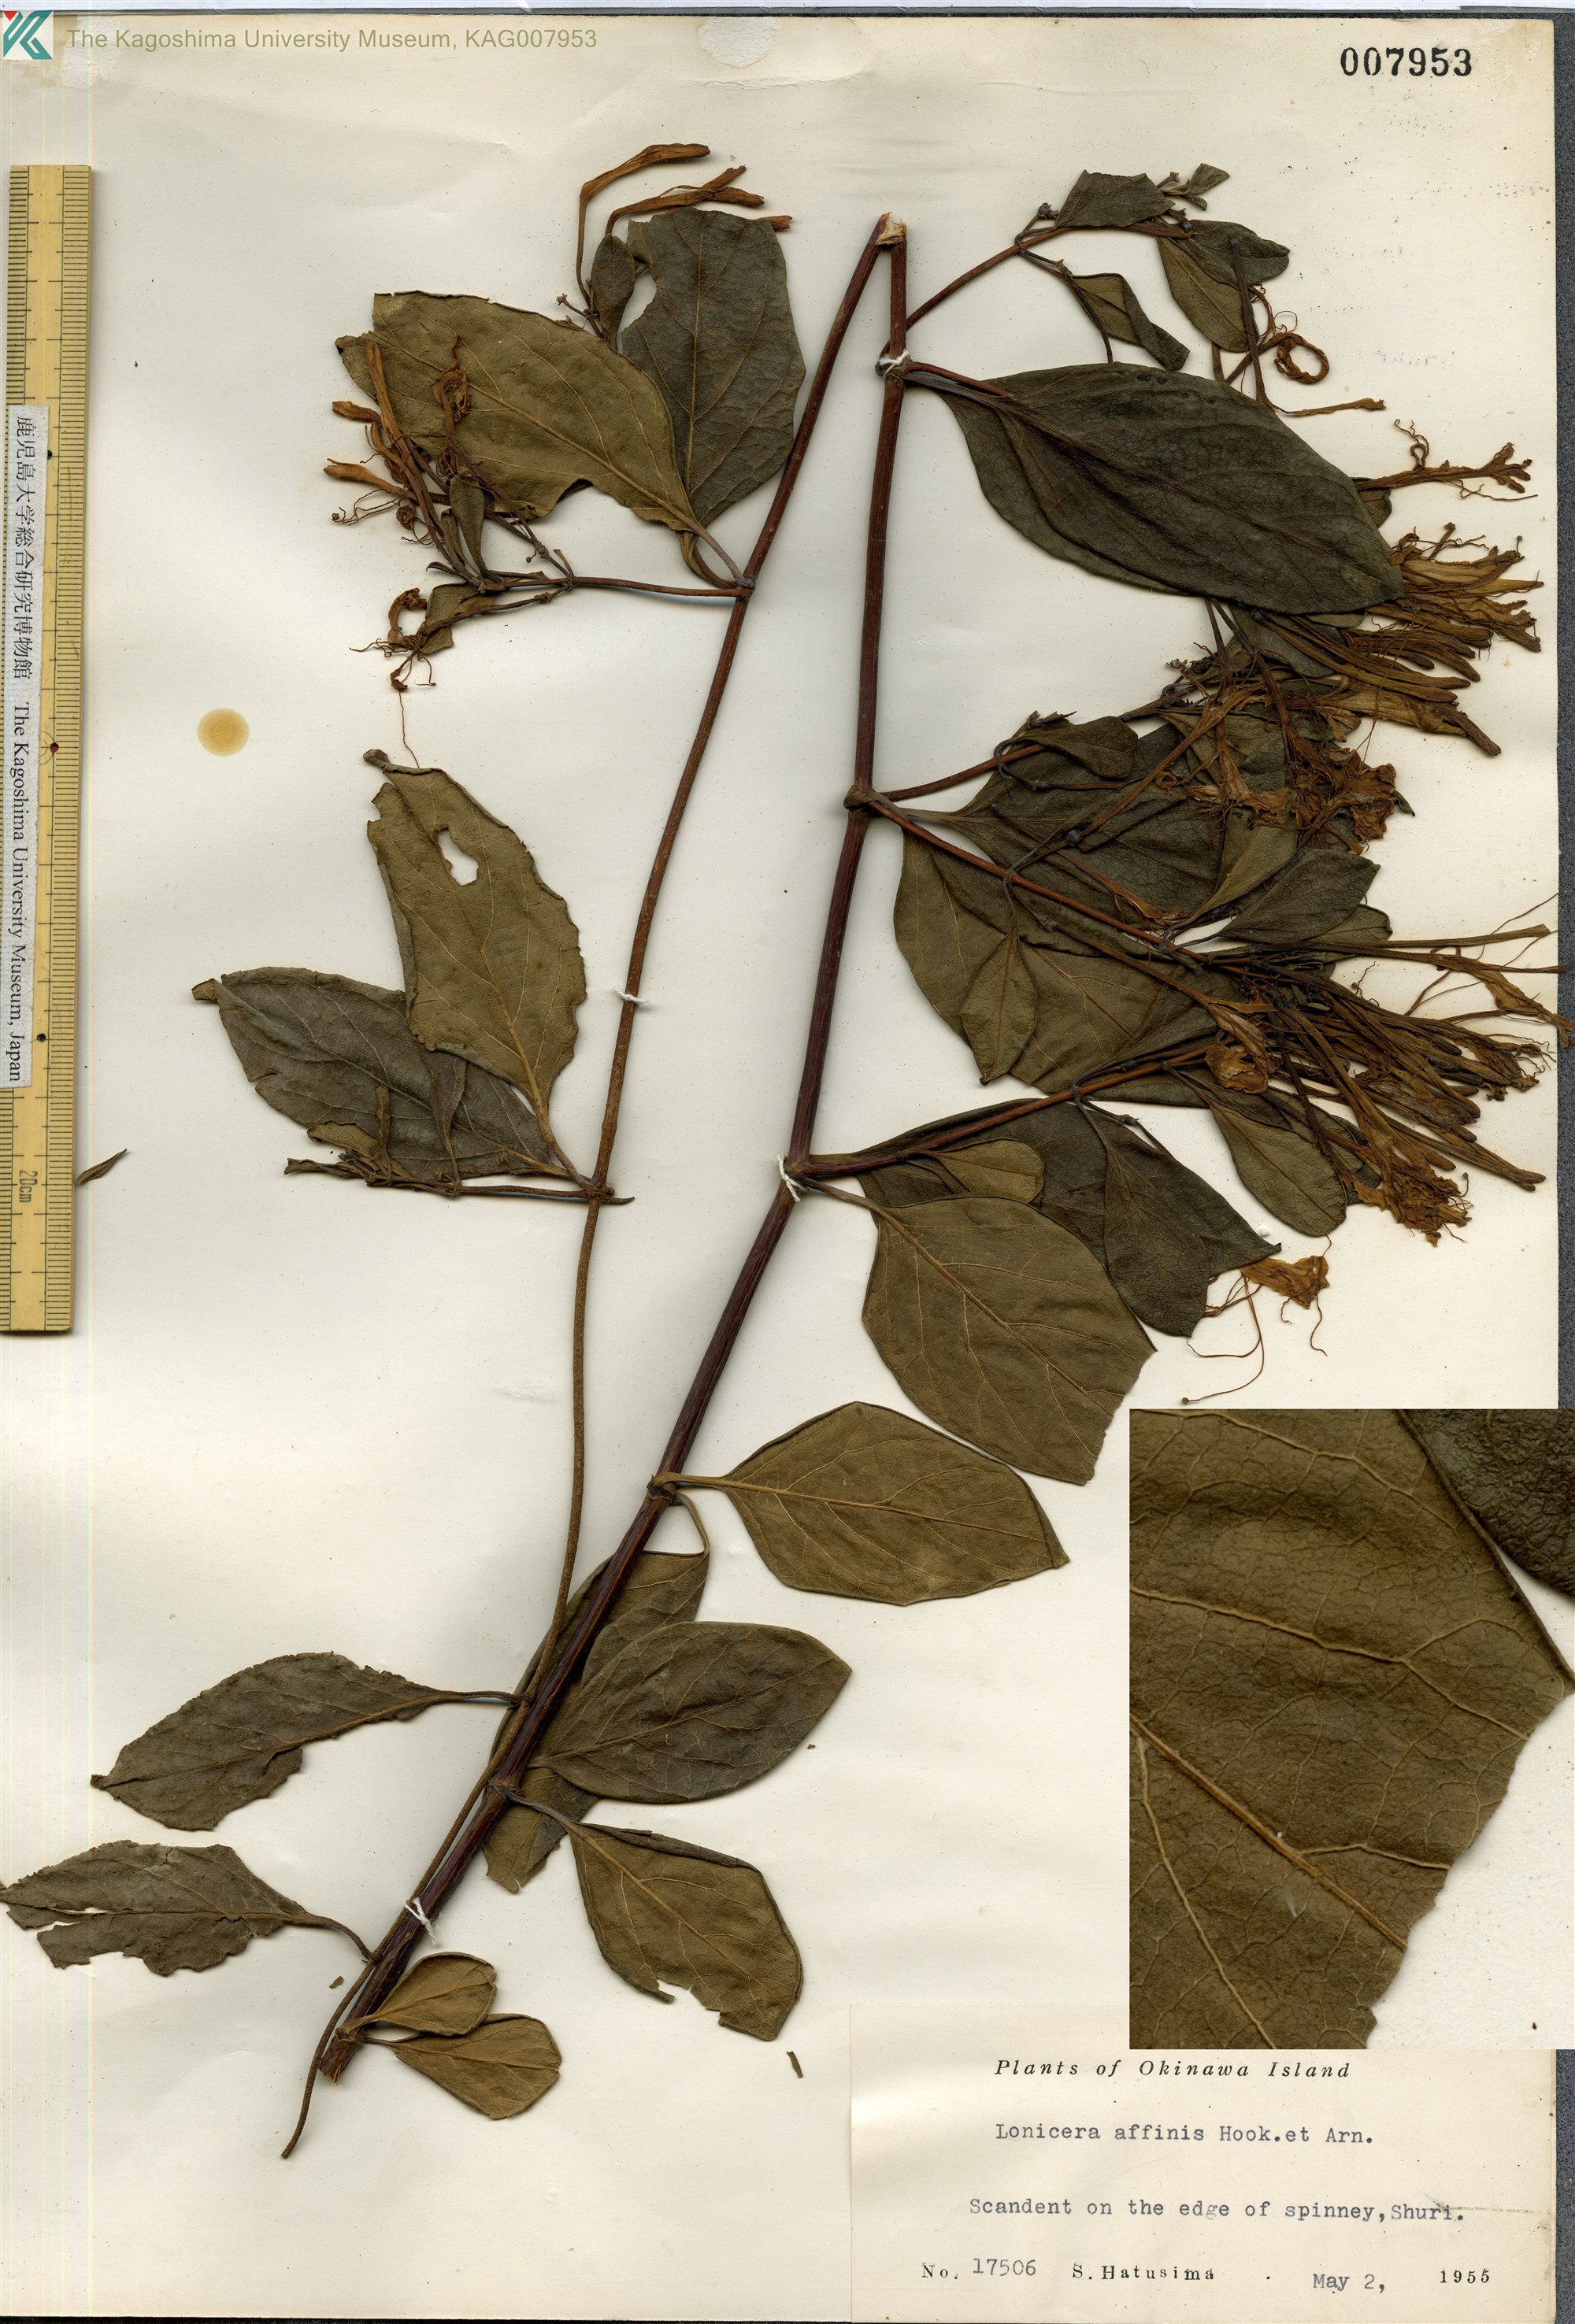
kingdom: Plantae
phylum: Tracheophyta
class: Magnoliopsida
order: Dipsacales
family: Caprifoliaceae
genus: Lonicera
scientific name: Lonicera affinis
